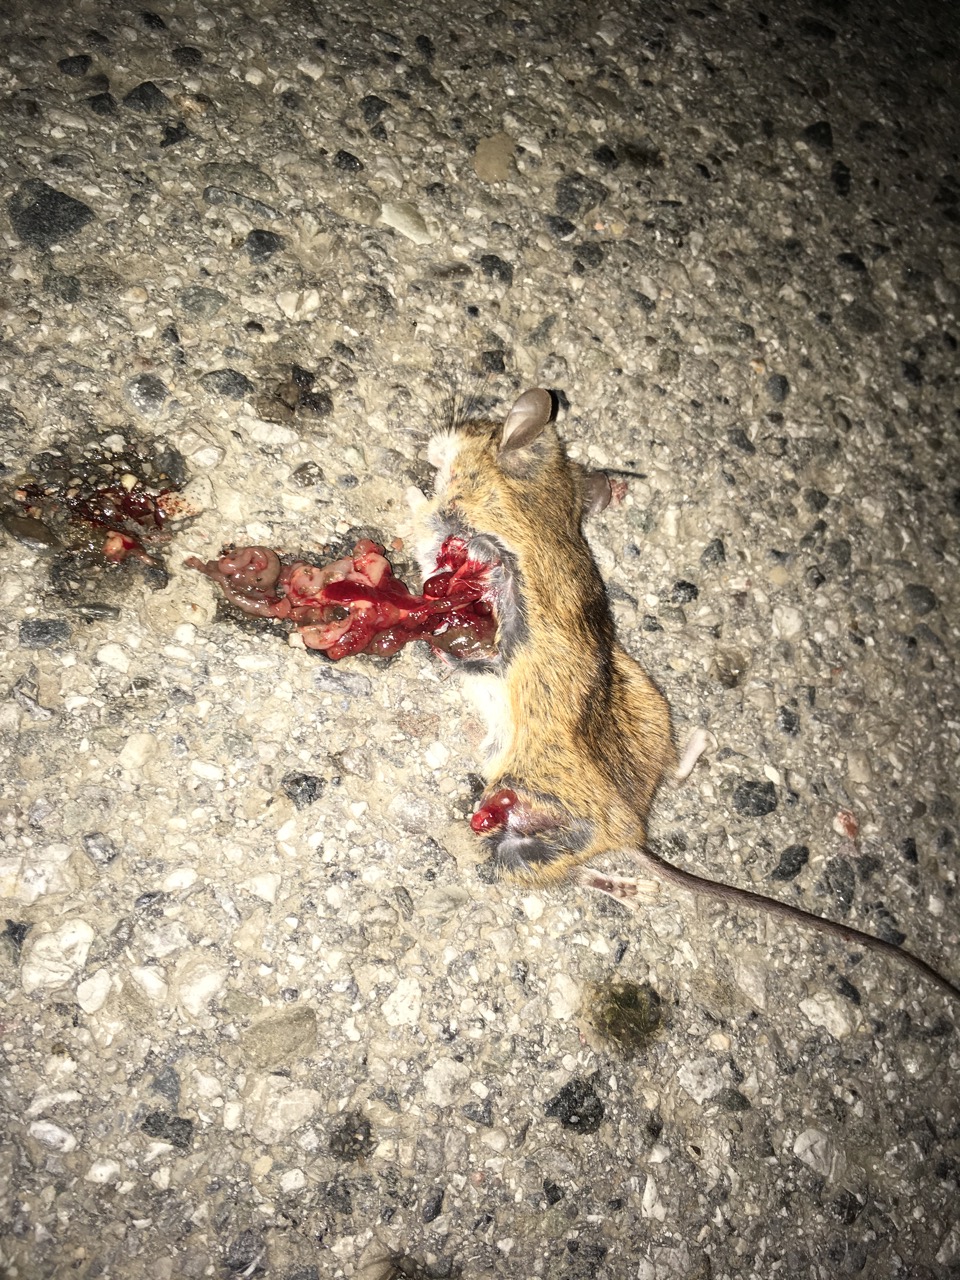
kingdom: Animalia
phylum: Chordata
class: Mammalia
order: Rodentia
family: Muridae
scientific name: Muridae
